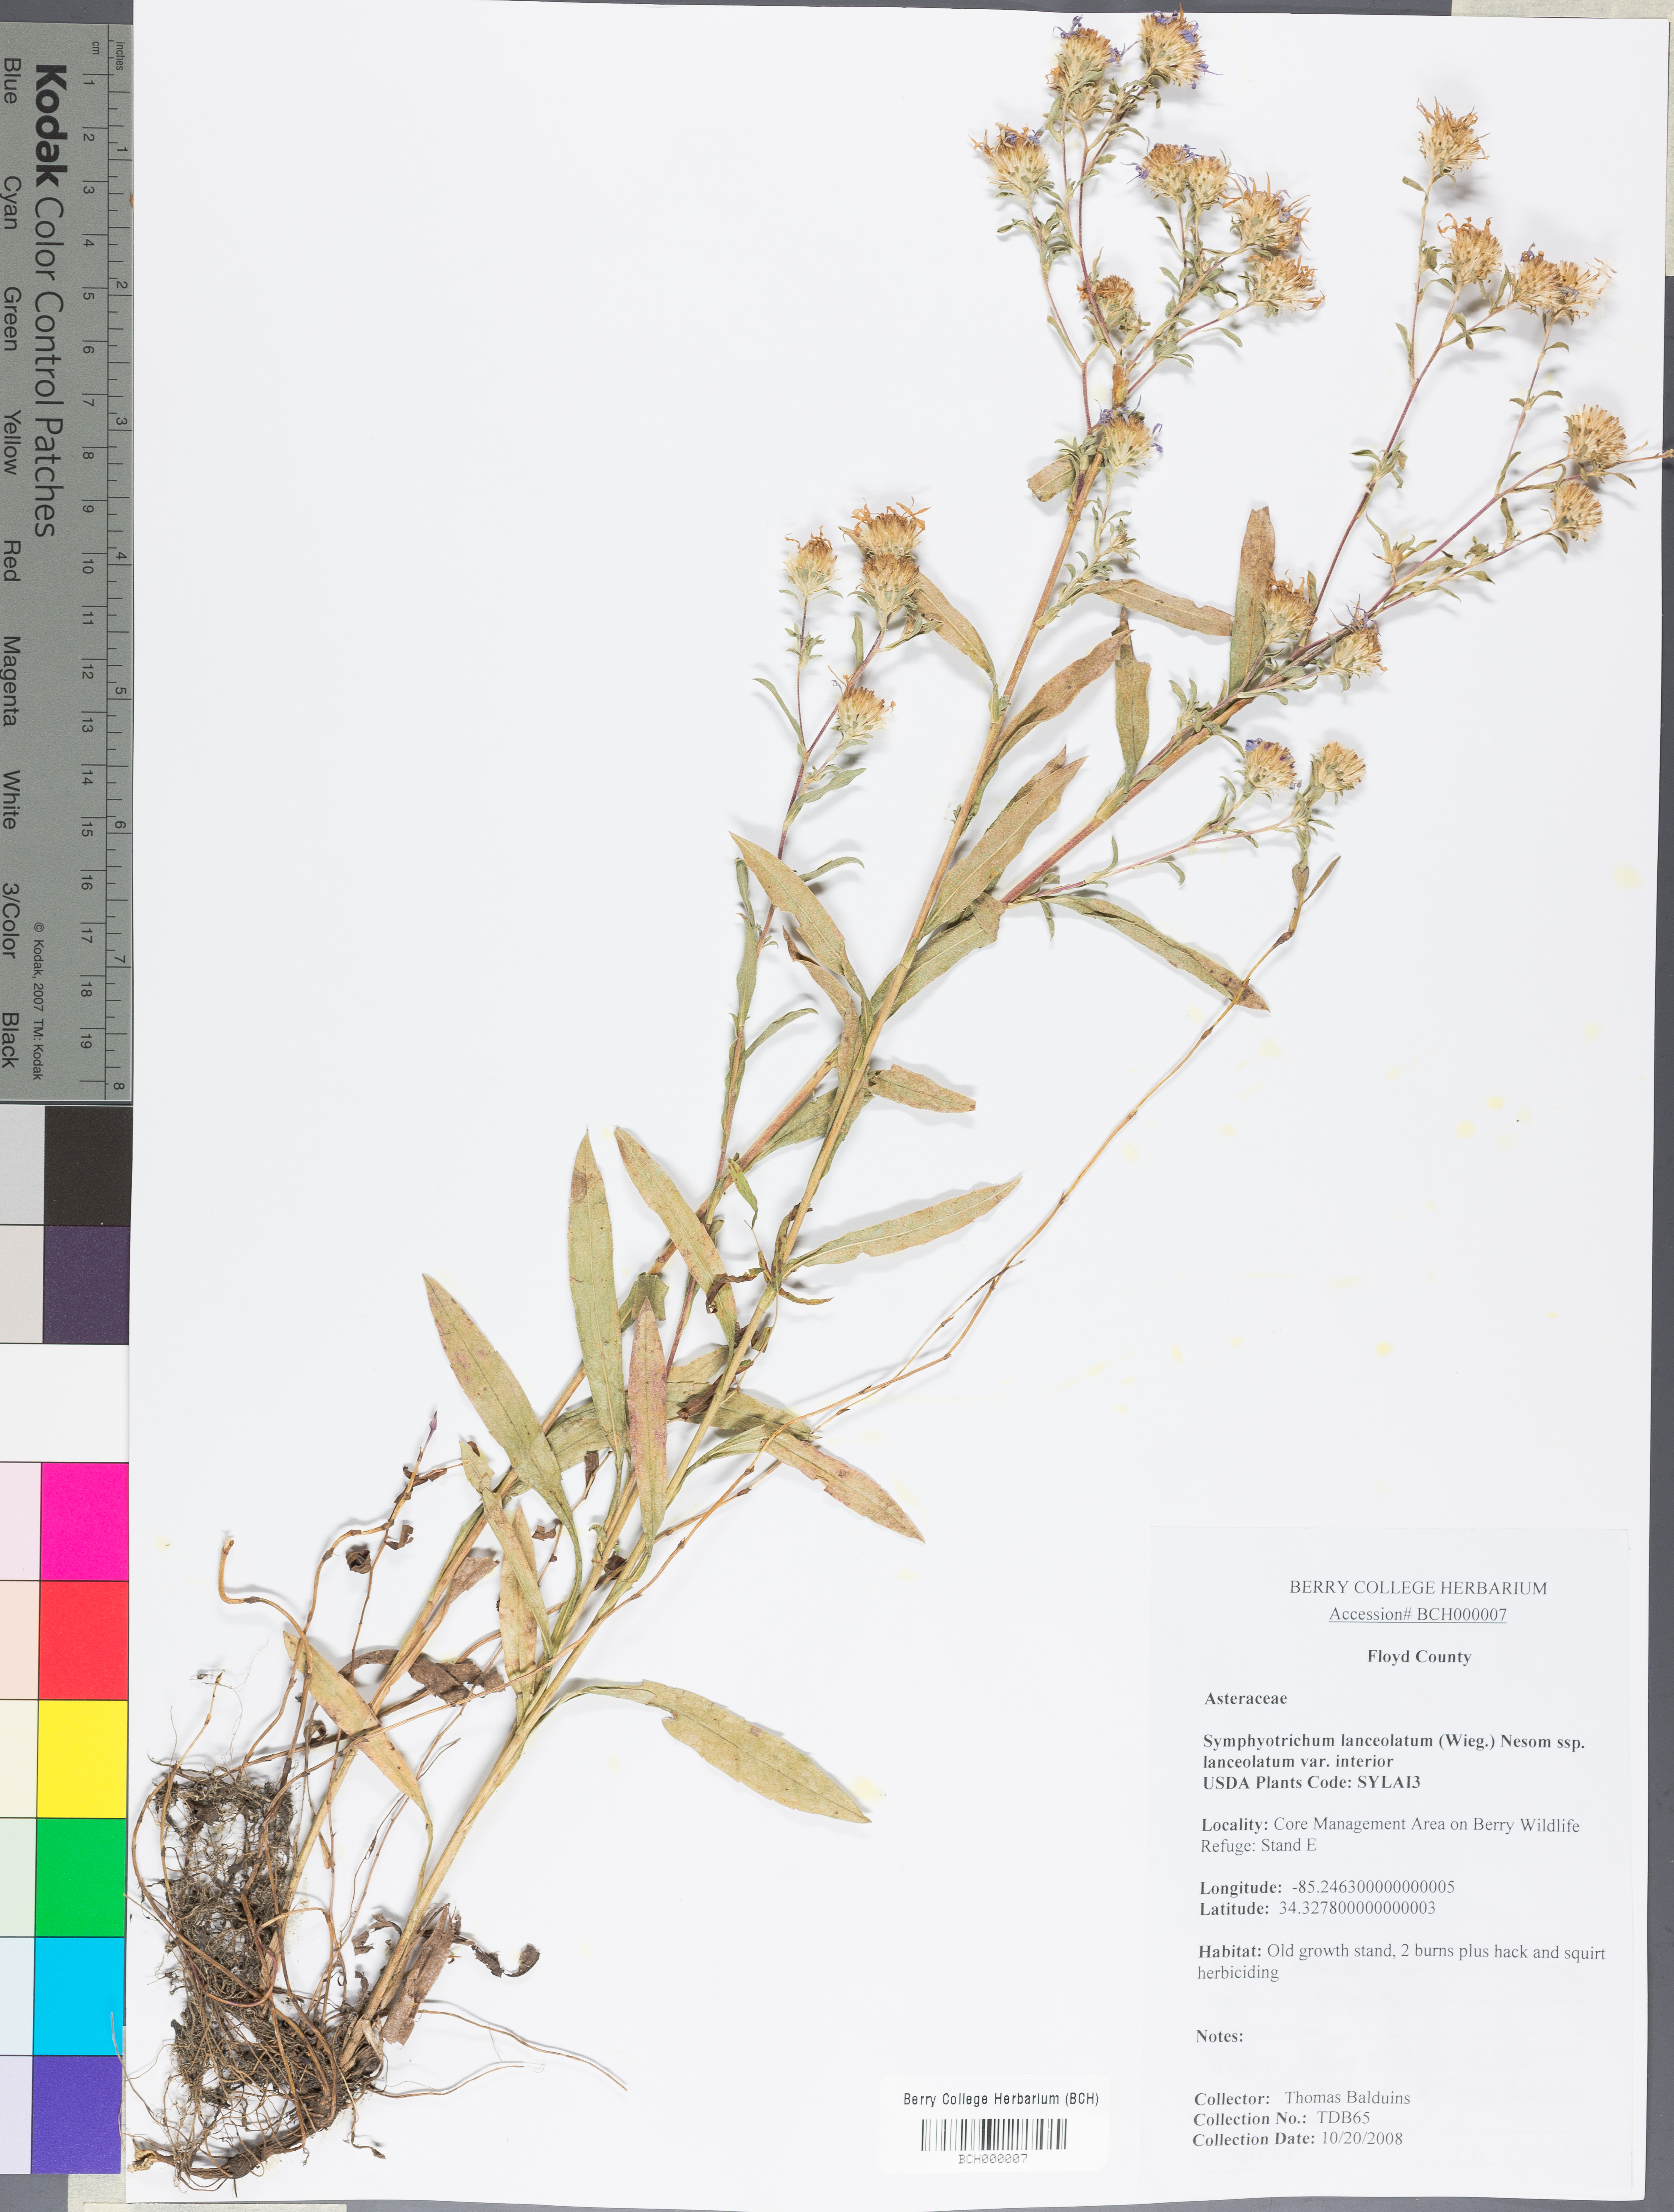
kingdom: Plantae
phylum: Tracheophyta
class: Magnoliopsida
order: Asterales
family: Asteraceae
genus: Symphyotrichum
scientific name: Symphyotrichum lanceolatum
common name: Panicled aster
